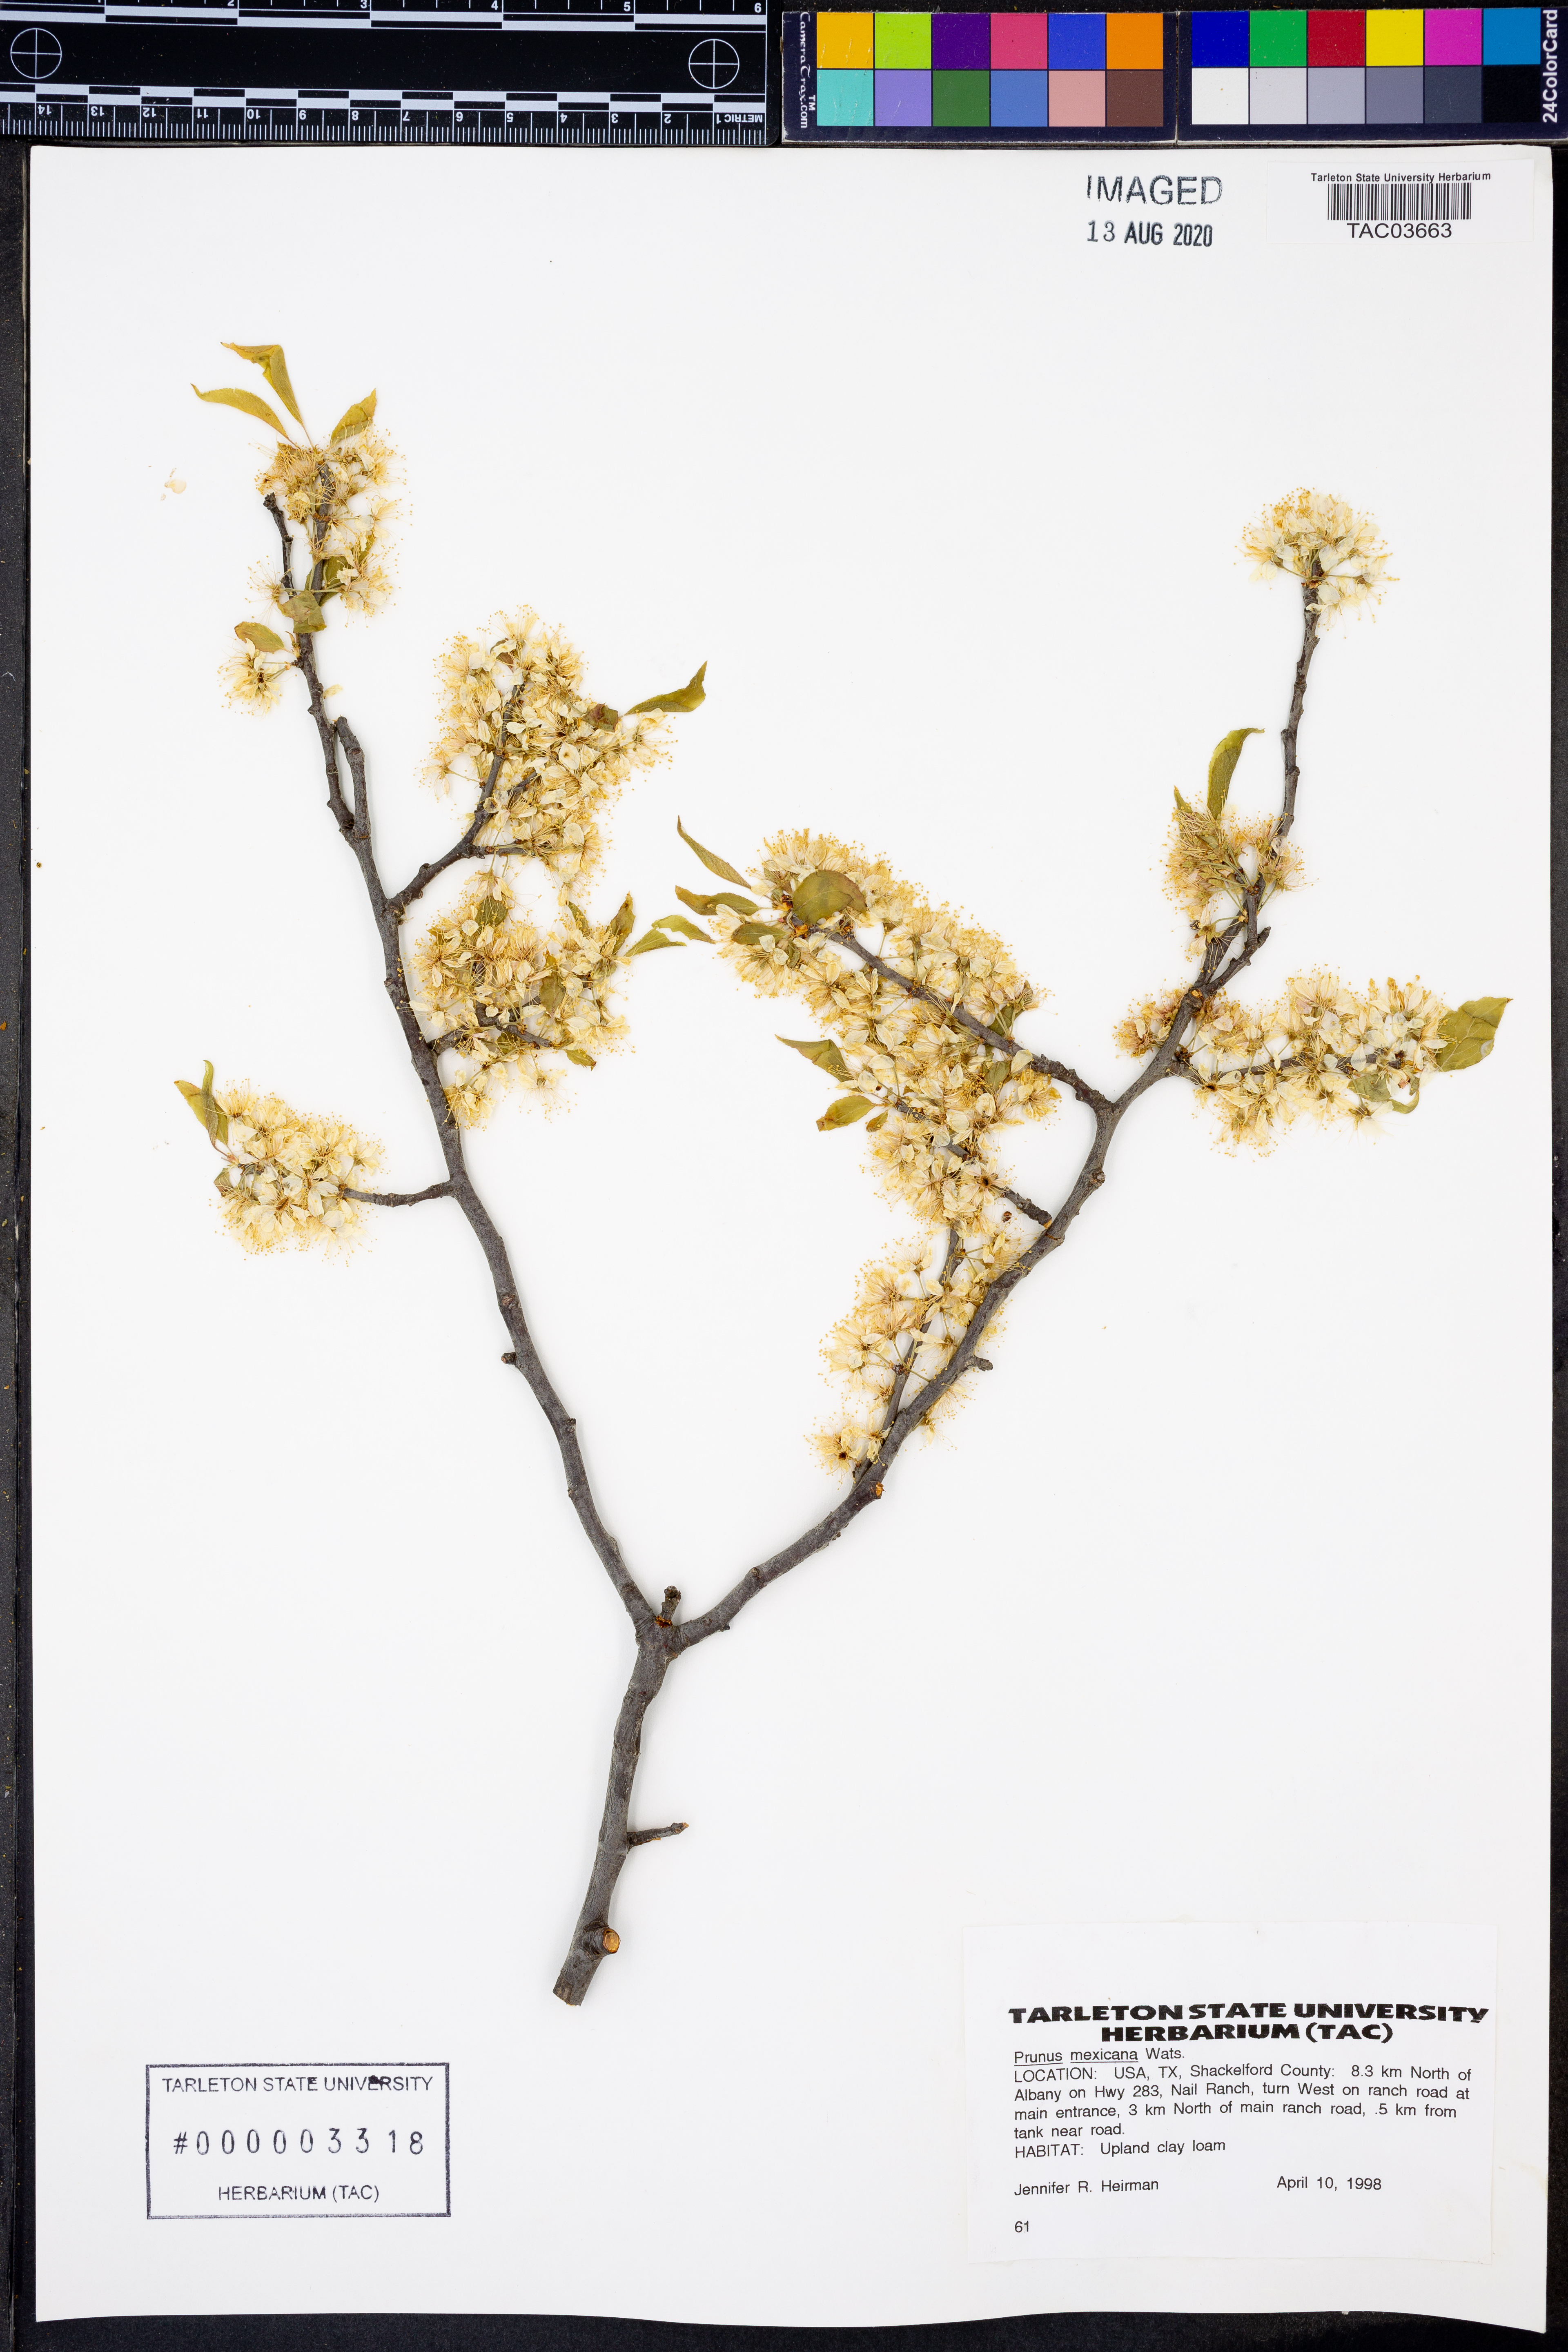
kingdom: Plantae
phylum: Tracheophyta
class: Magnoliopsida
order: Rosales
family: Rosaceae
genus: Prunus
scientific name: Prunus mexicana
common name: Mexican plum
